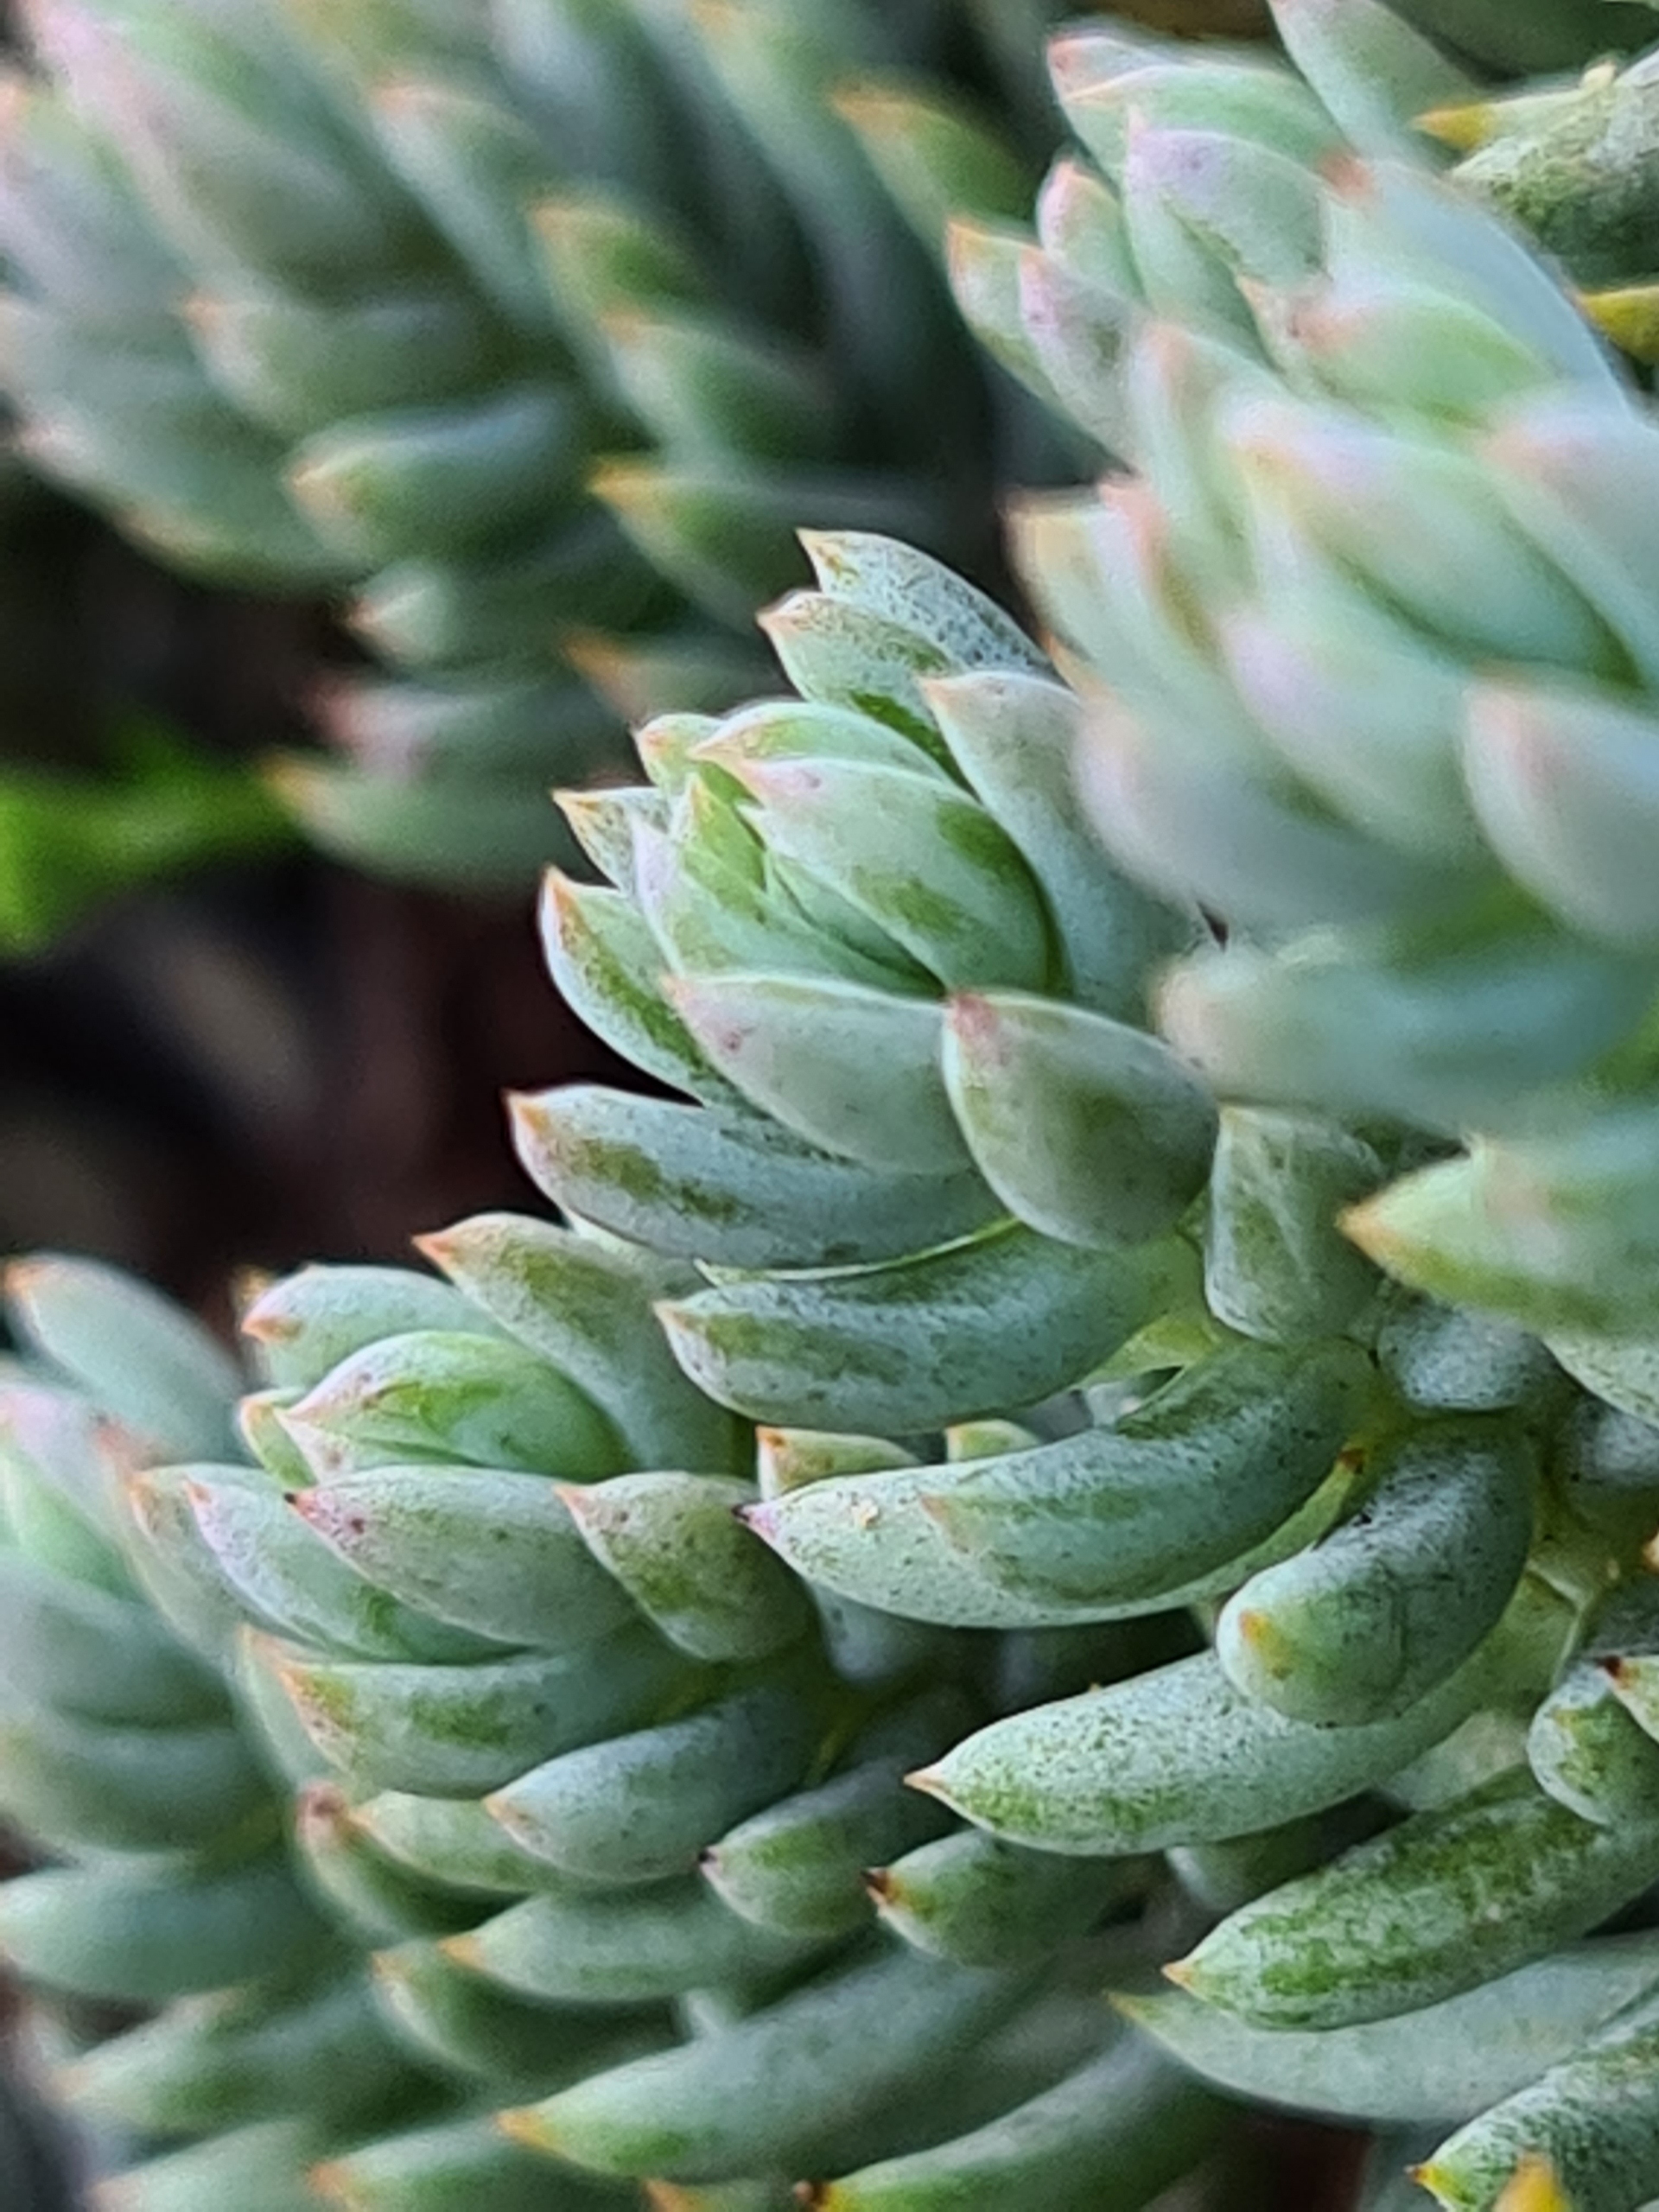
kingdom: Plantae
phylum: Tracheophyta
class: Magnoliopsida
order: Saxifragales
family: Crassulaceae
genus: Petrosedum
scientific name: Petrosedum rupestre
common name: Bjerg-stenurt
